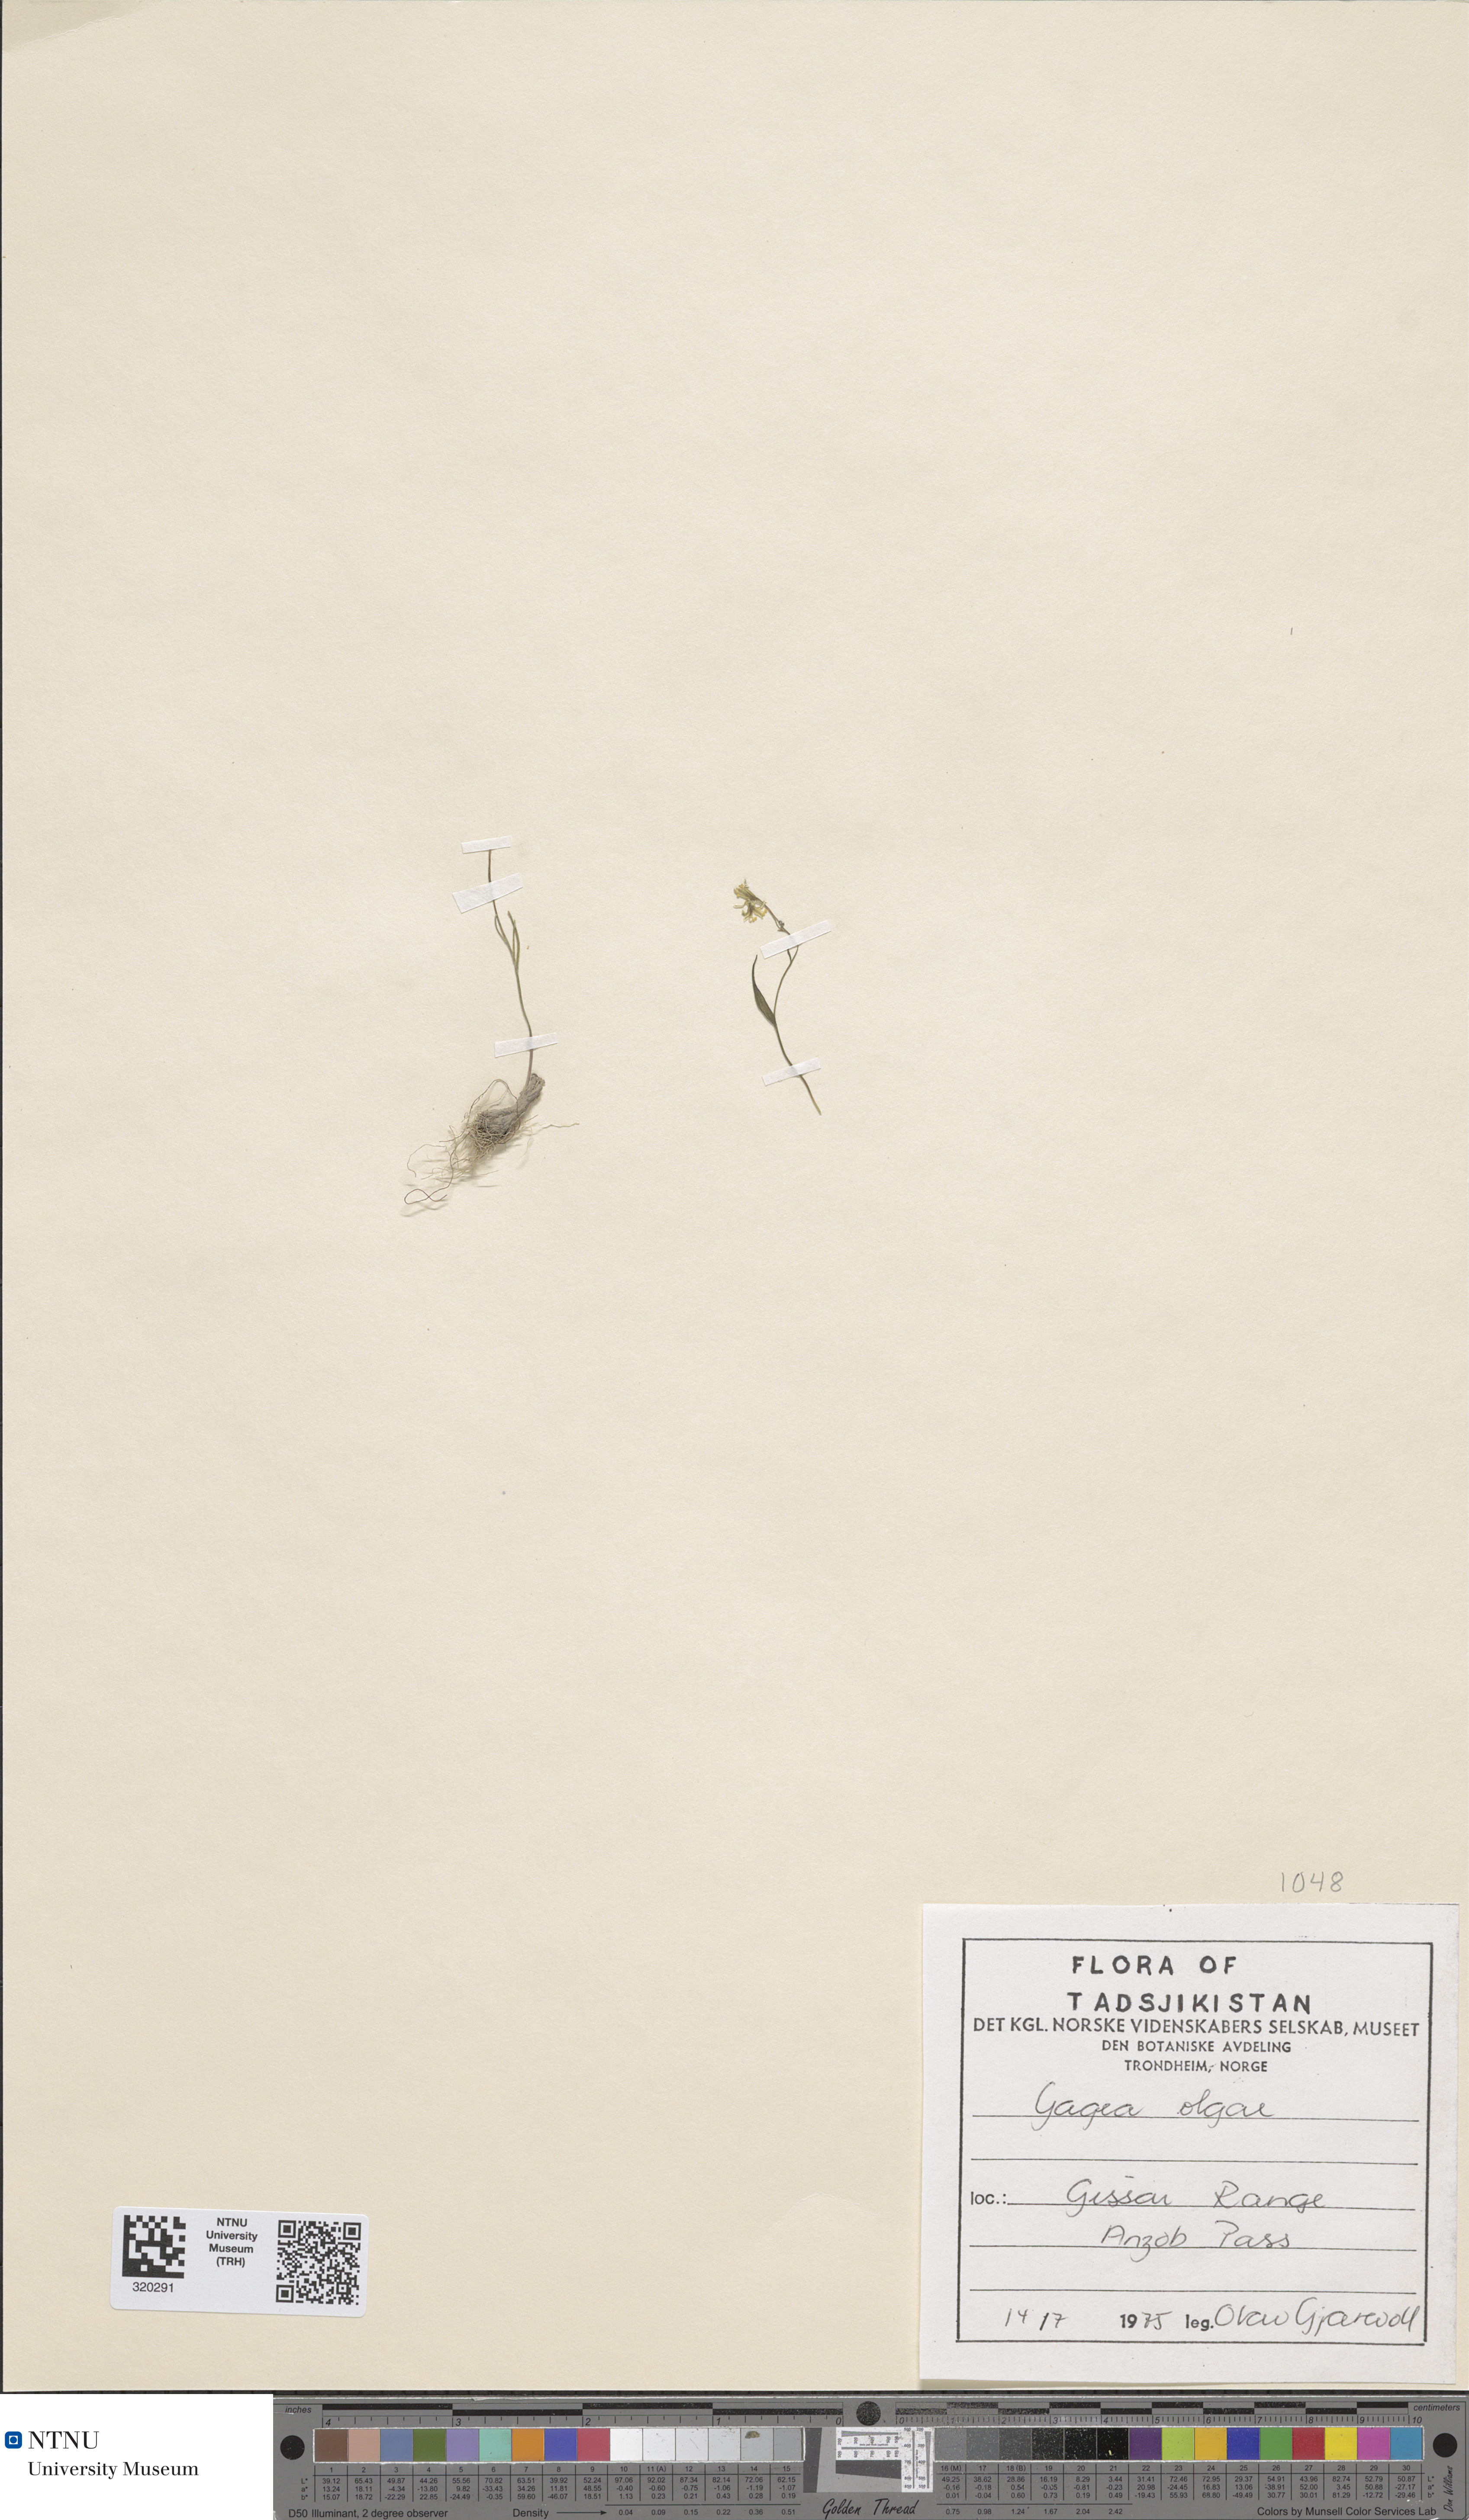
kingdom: Plantae
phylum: Tracheophyta
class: Liliopsida
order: Liliales
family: Liliaceae
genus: Gagea
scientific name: Gagea olgae
